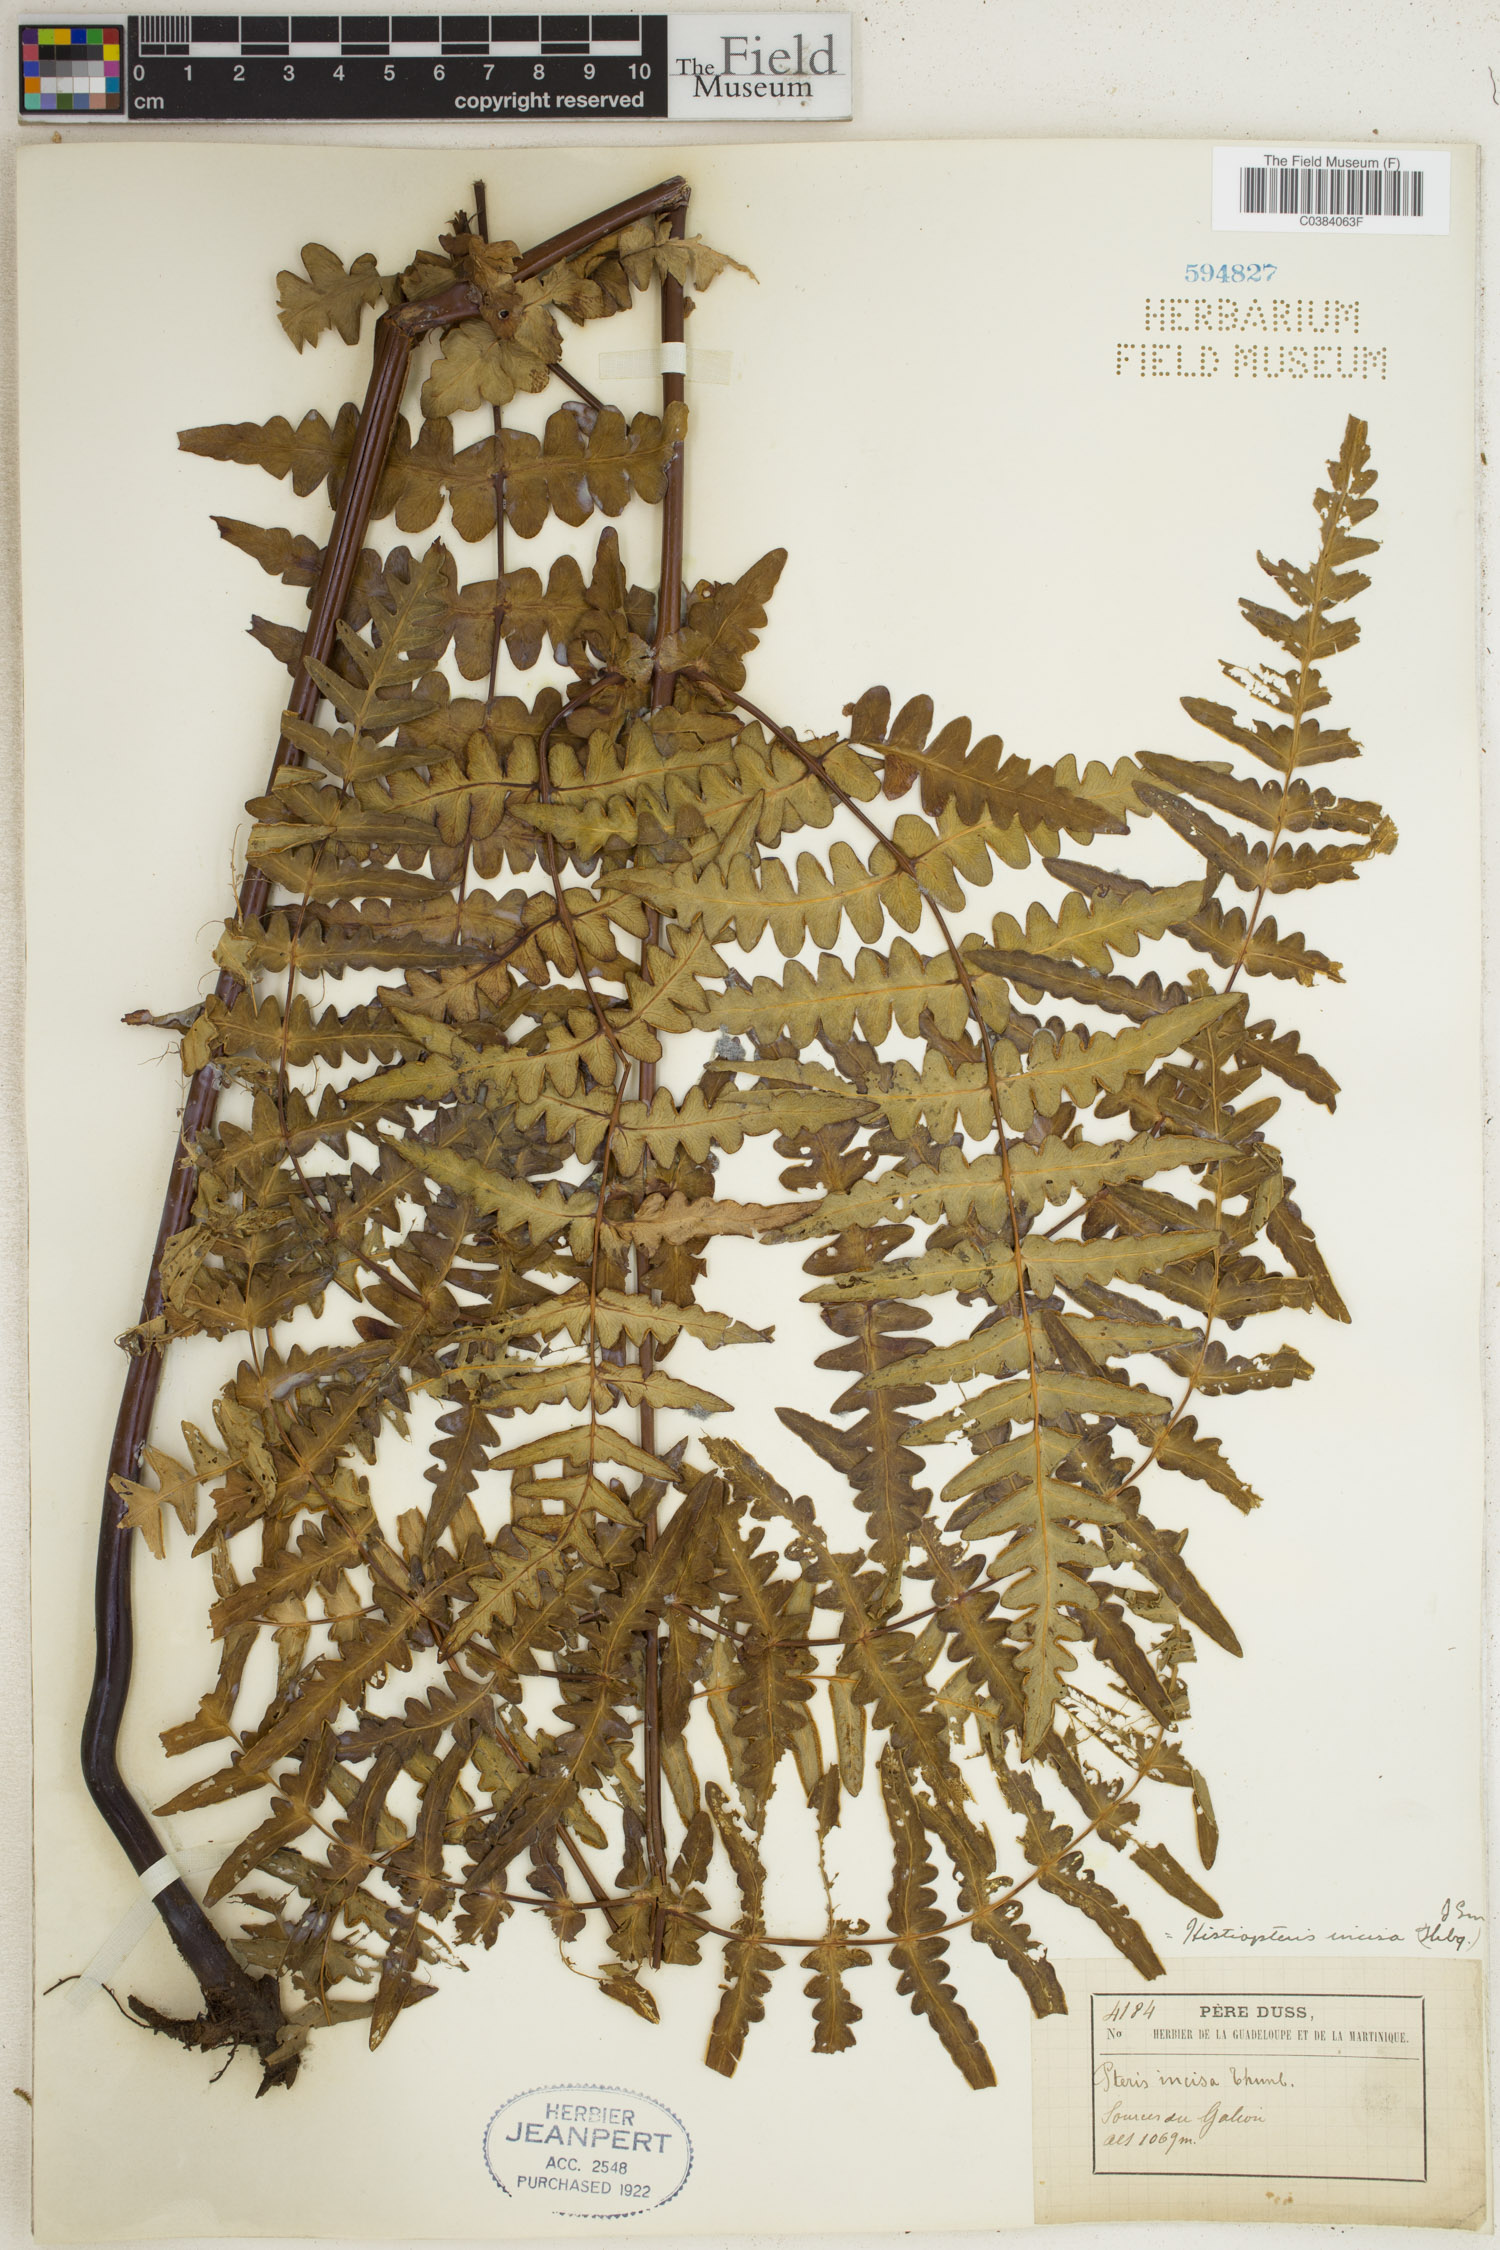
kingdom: Plantae
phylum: Tracheophyta
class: Polypodiopsida
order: Polypodiales
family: Dennstaedtiaceae
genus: Histiopteris
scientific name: Histiopteris incisa
